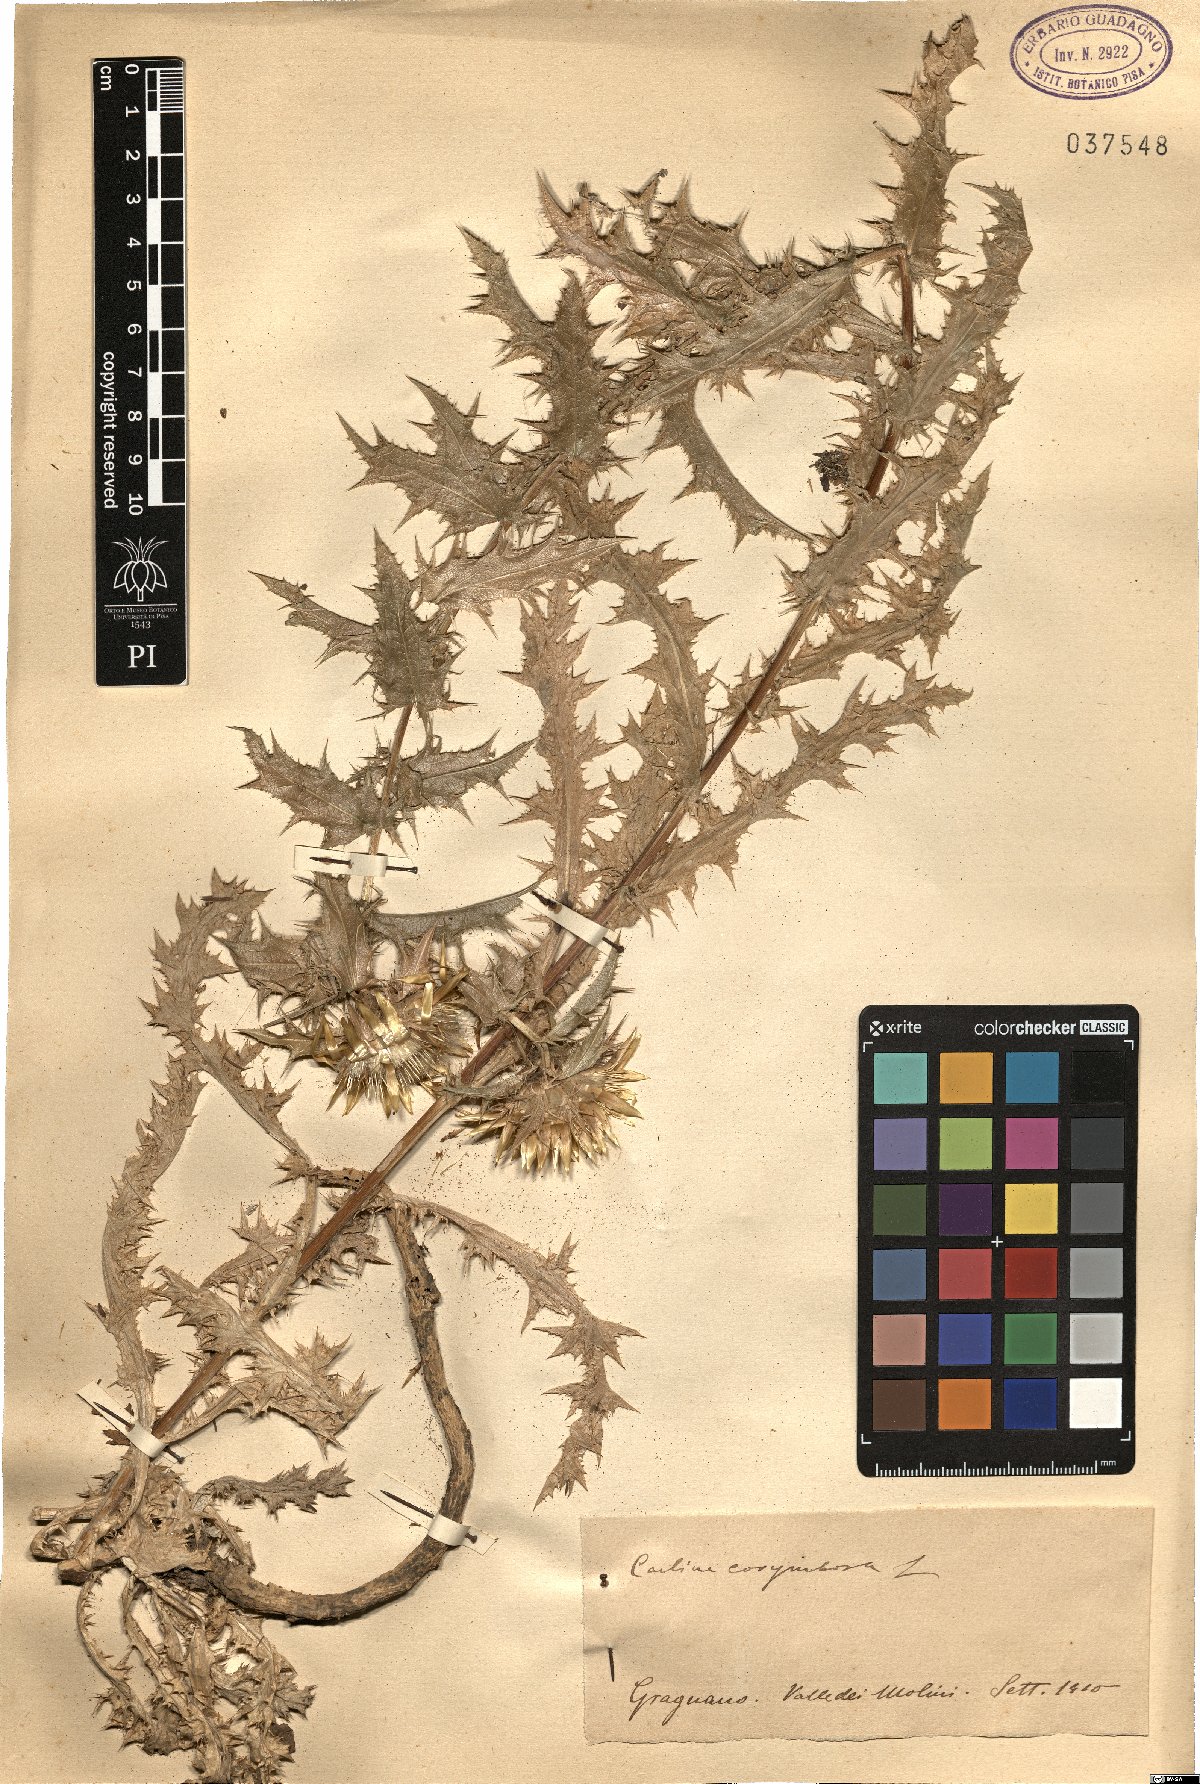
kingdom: Plantae
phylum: Tracheophyta
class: Magnoliopsida
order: Asterales
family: Asteraceae
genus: Carlina
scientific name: Carlina corymbosa
